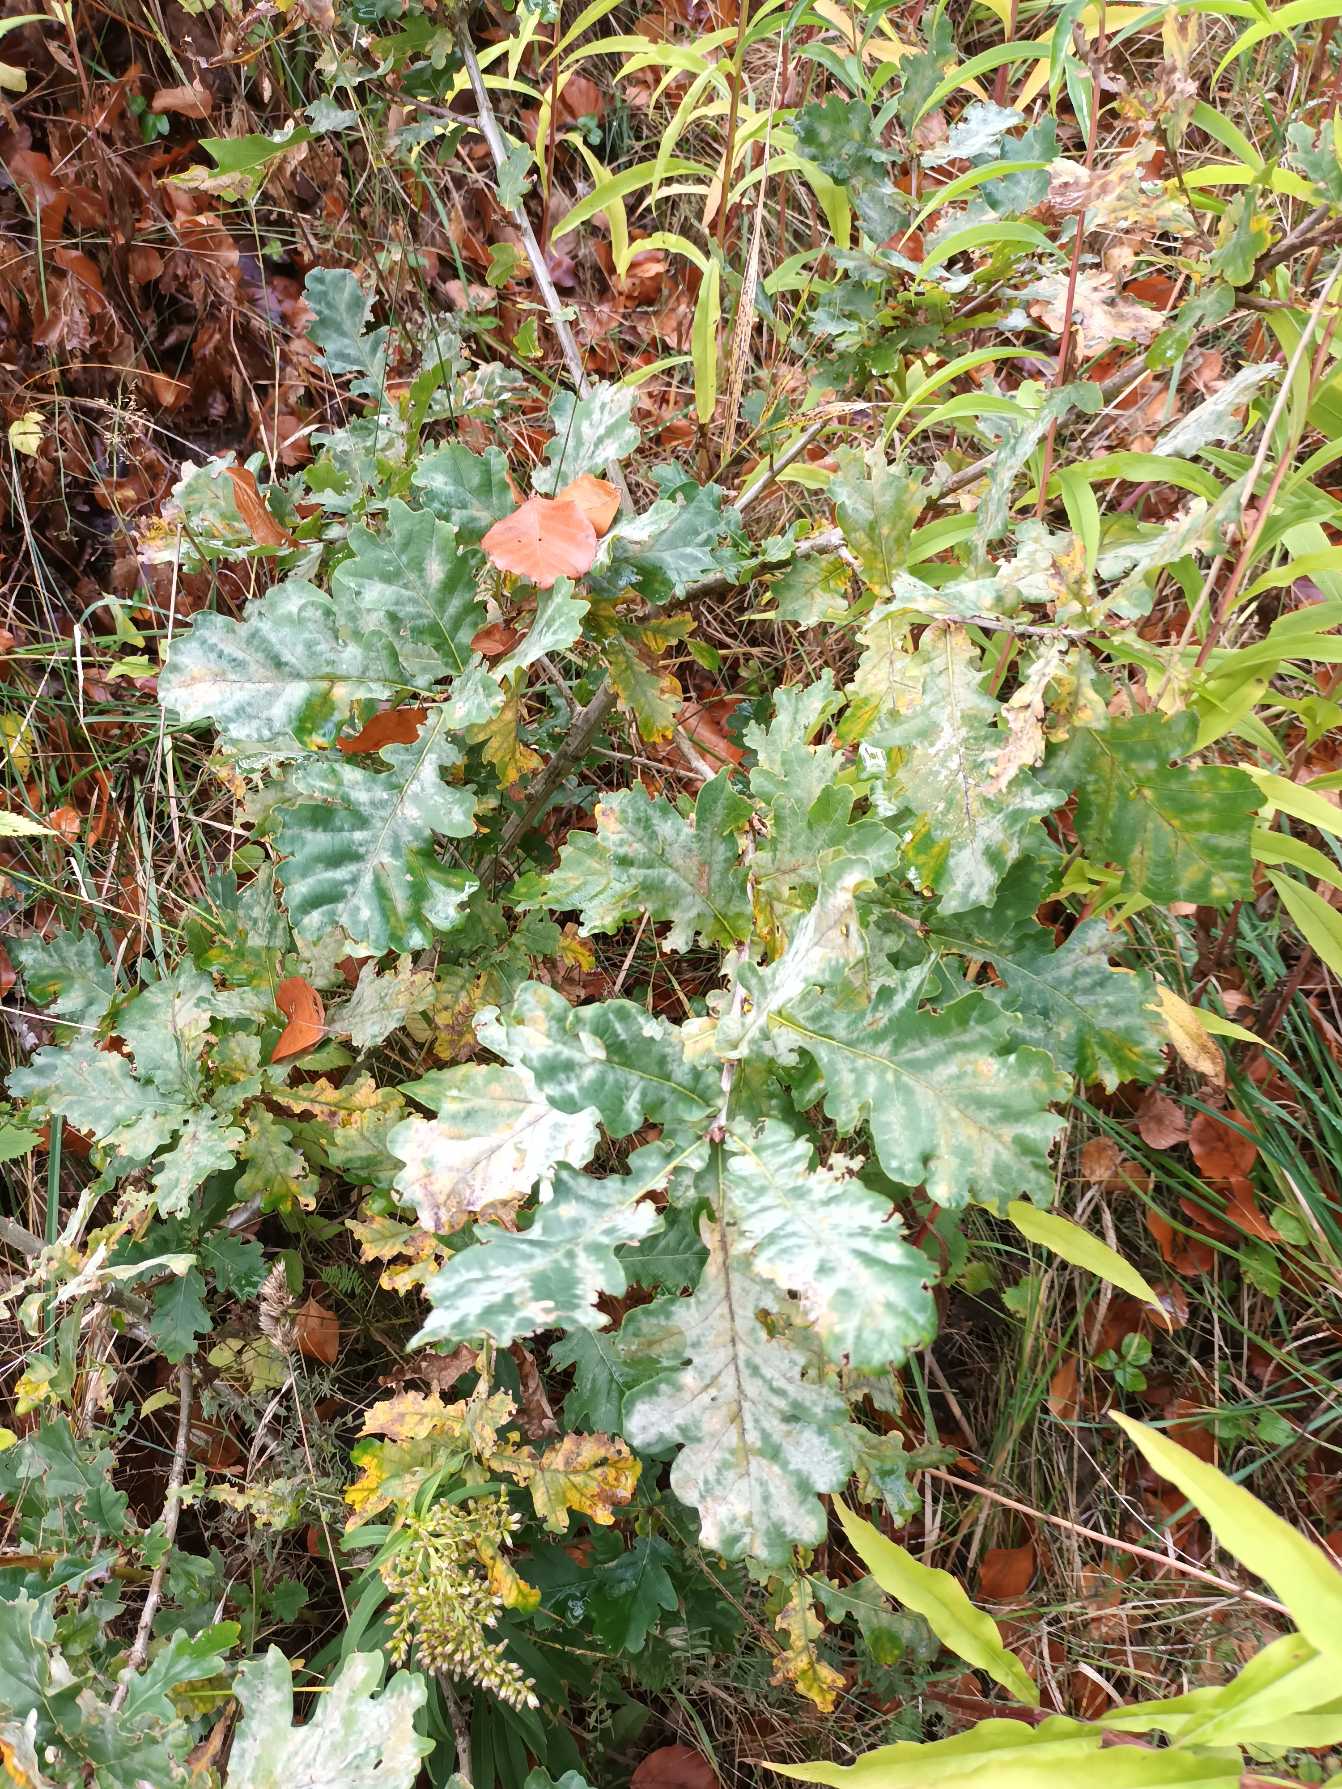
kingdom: Plantae
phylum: Tracheophyta
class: Magnoliopsida
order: Fagales
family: Fagaceae
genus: Quercus
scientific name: Quercus robur
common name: Stilk-eg/almindelig eg
